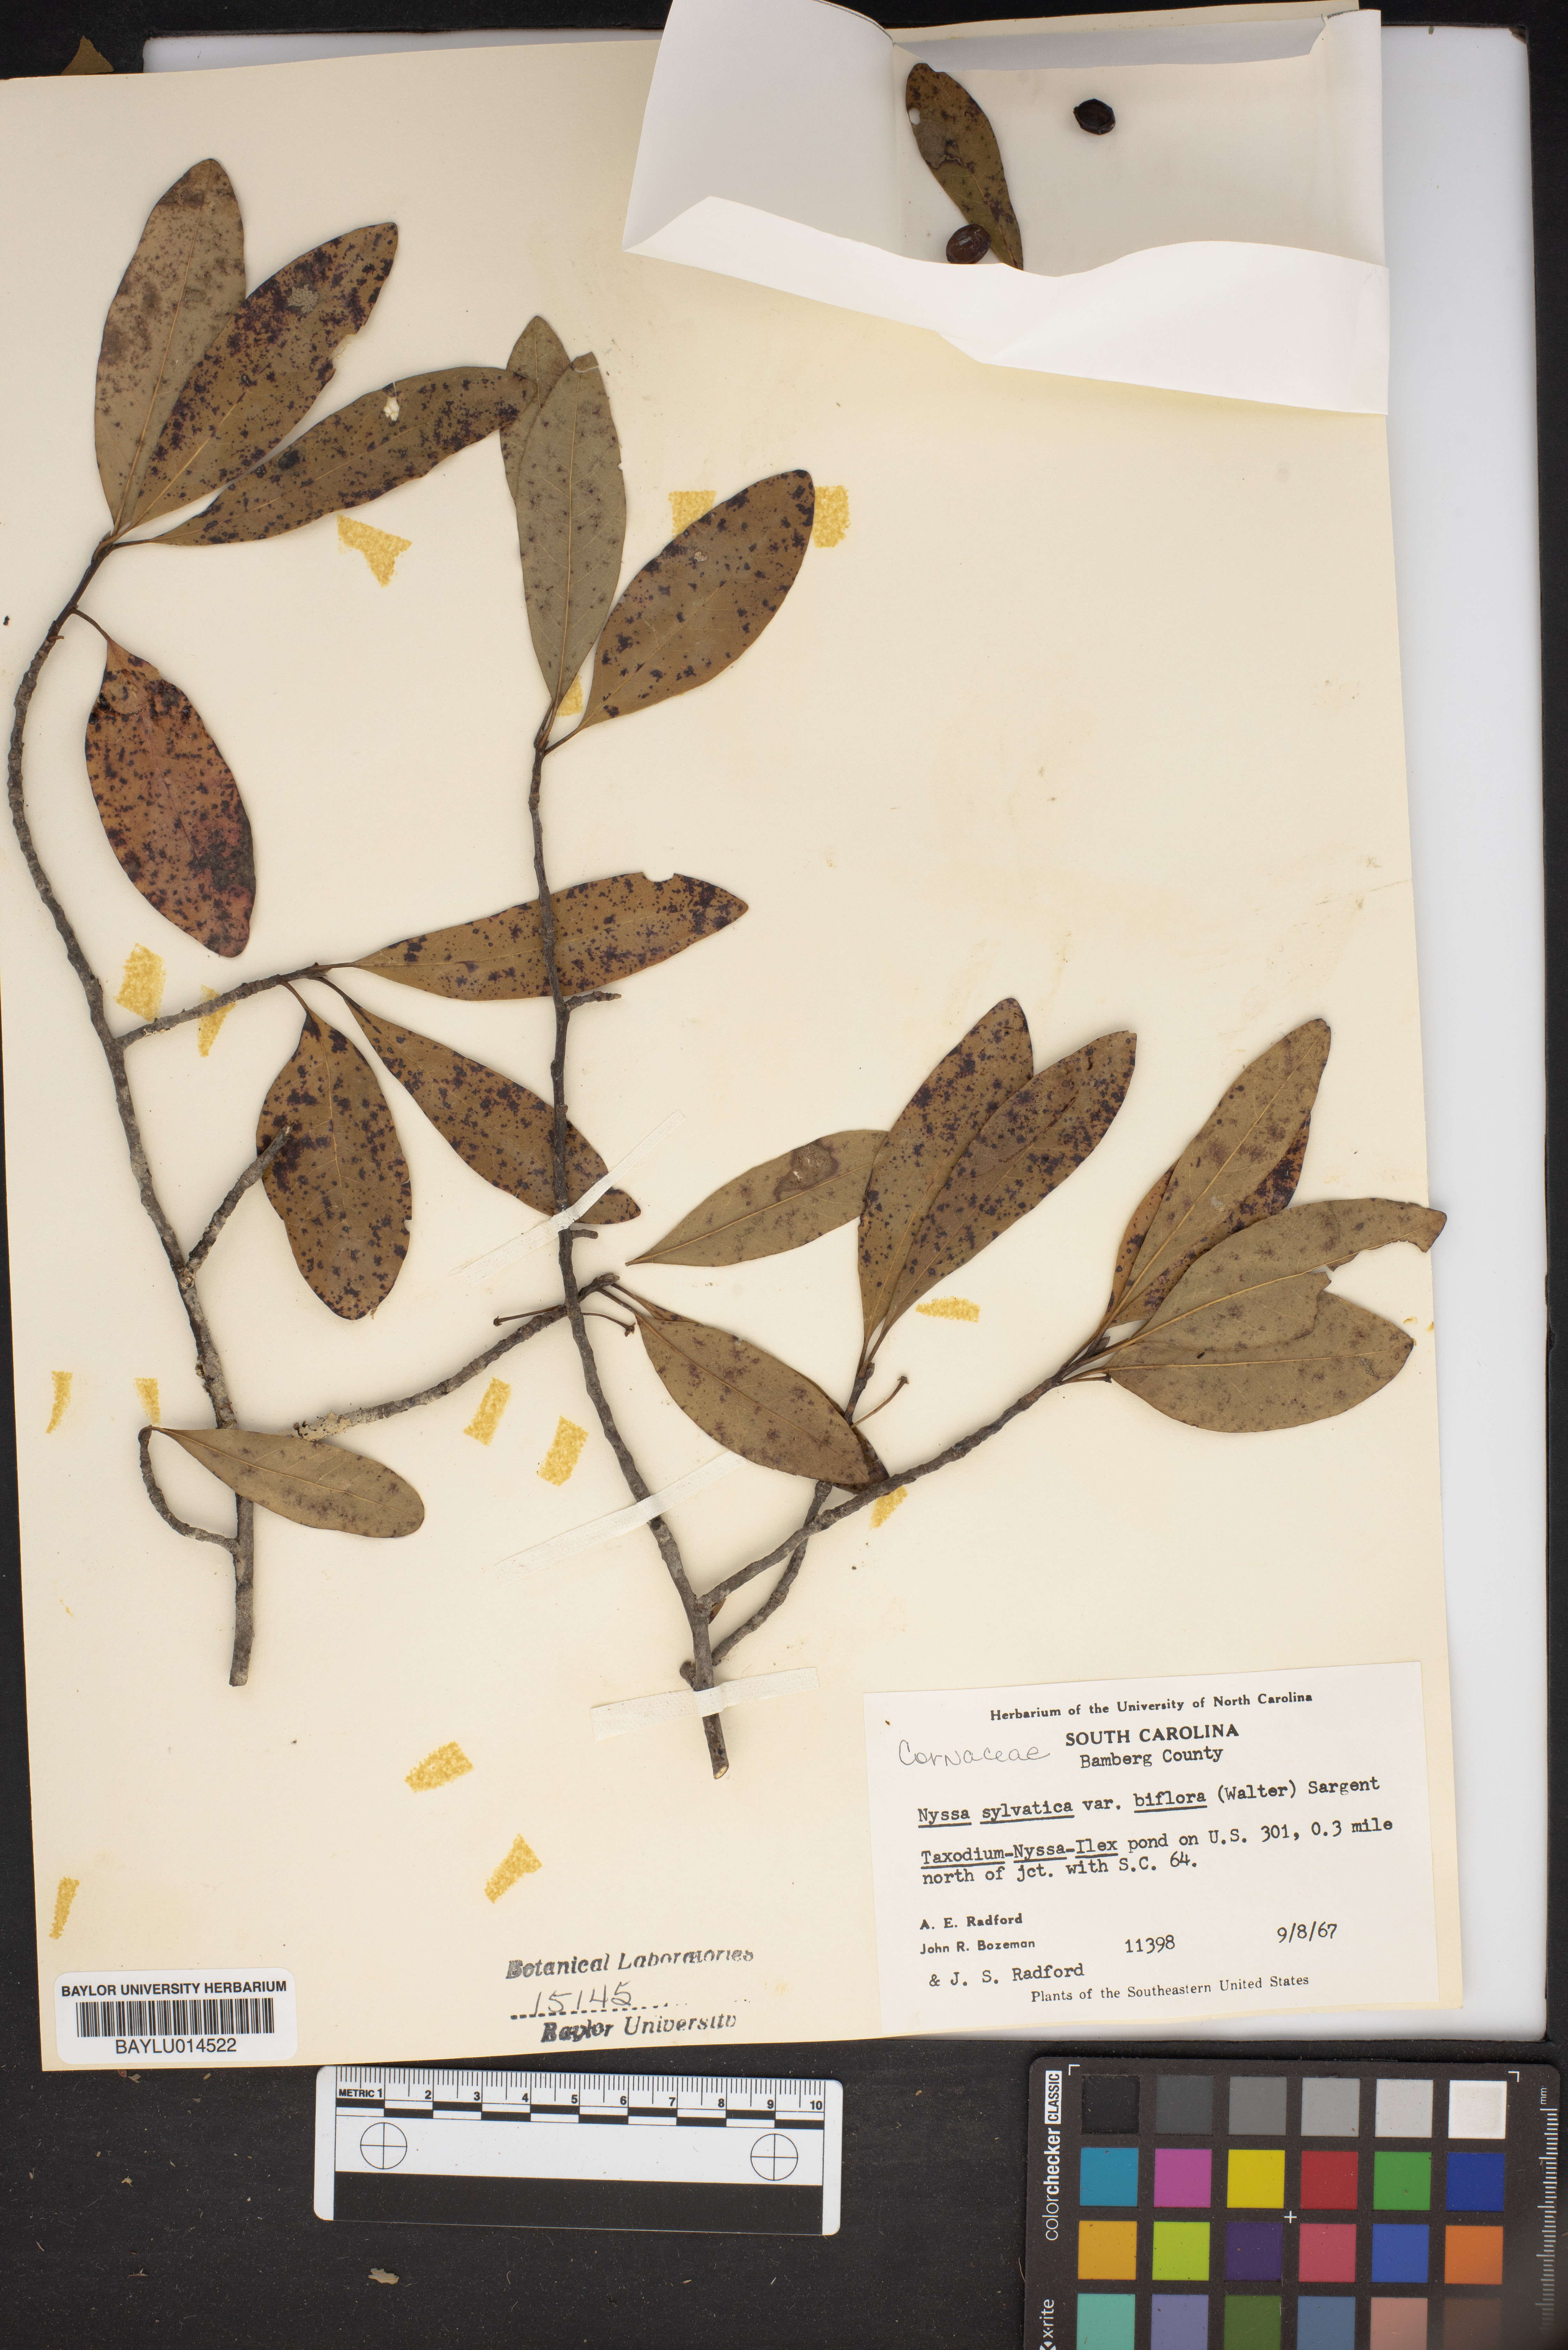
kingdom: Plantae
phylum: Tracheophyta
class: Magnoliopsida
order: Cornales
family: Nyssaceae
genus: Nyssa
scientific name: Nyssa biflora
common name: Swamp blackgum
